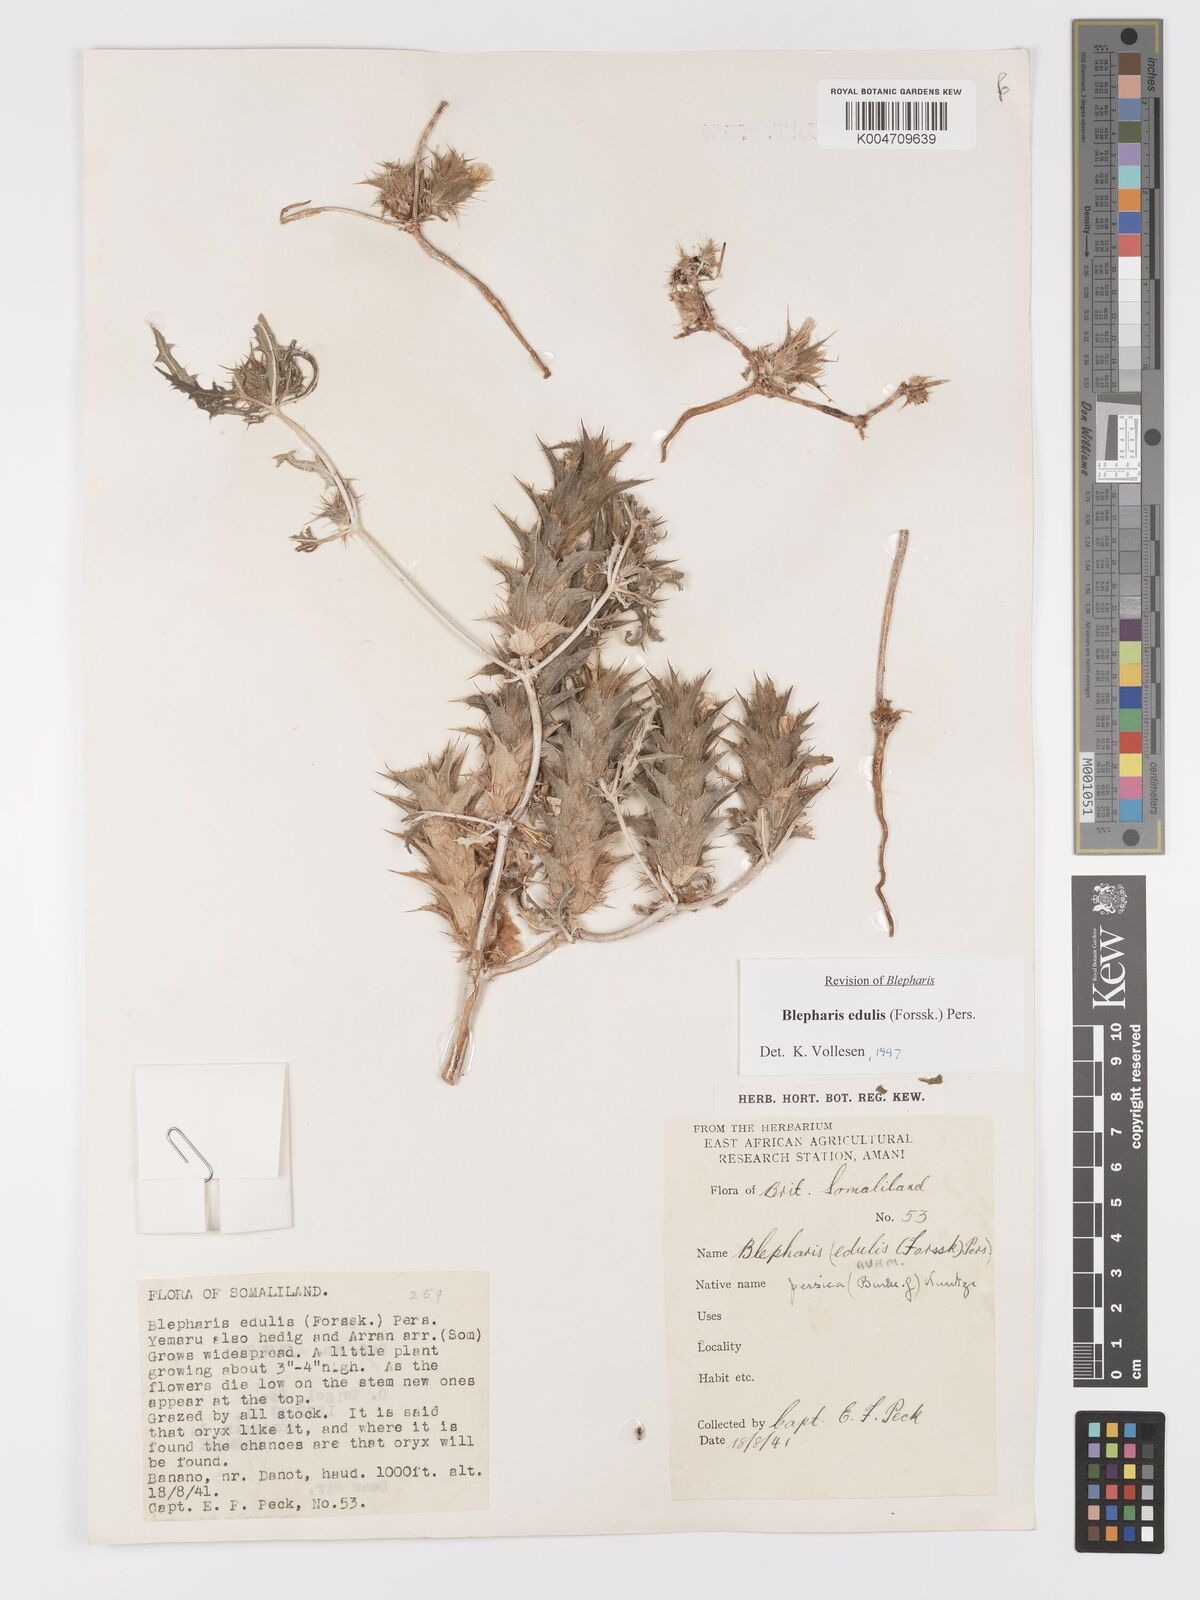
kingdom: Plantae
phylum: Tracheophyta
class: Magnoliopsida
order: Lamiales
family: Acanthaceae
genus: Blepharis
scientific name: Blepharis edulis
